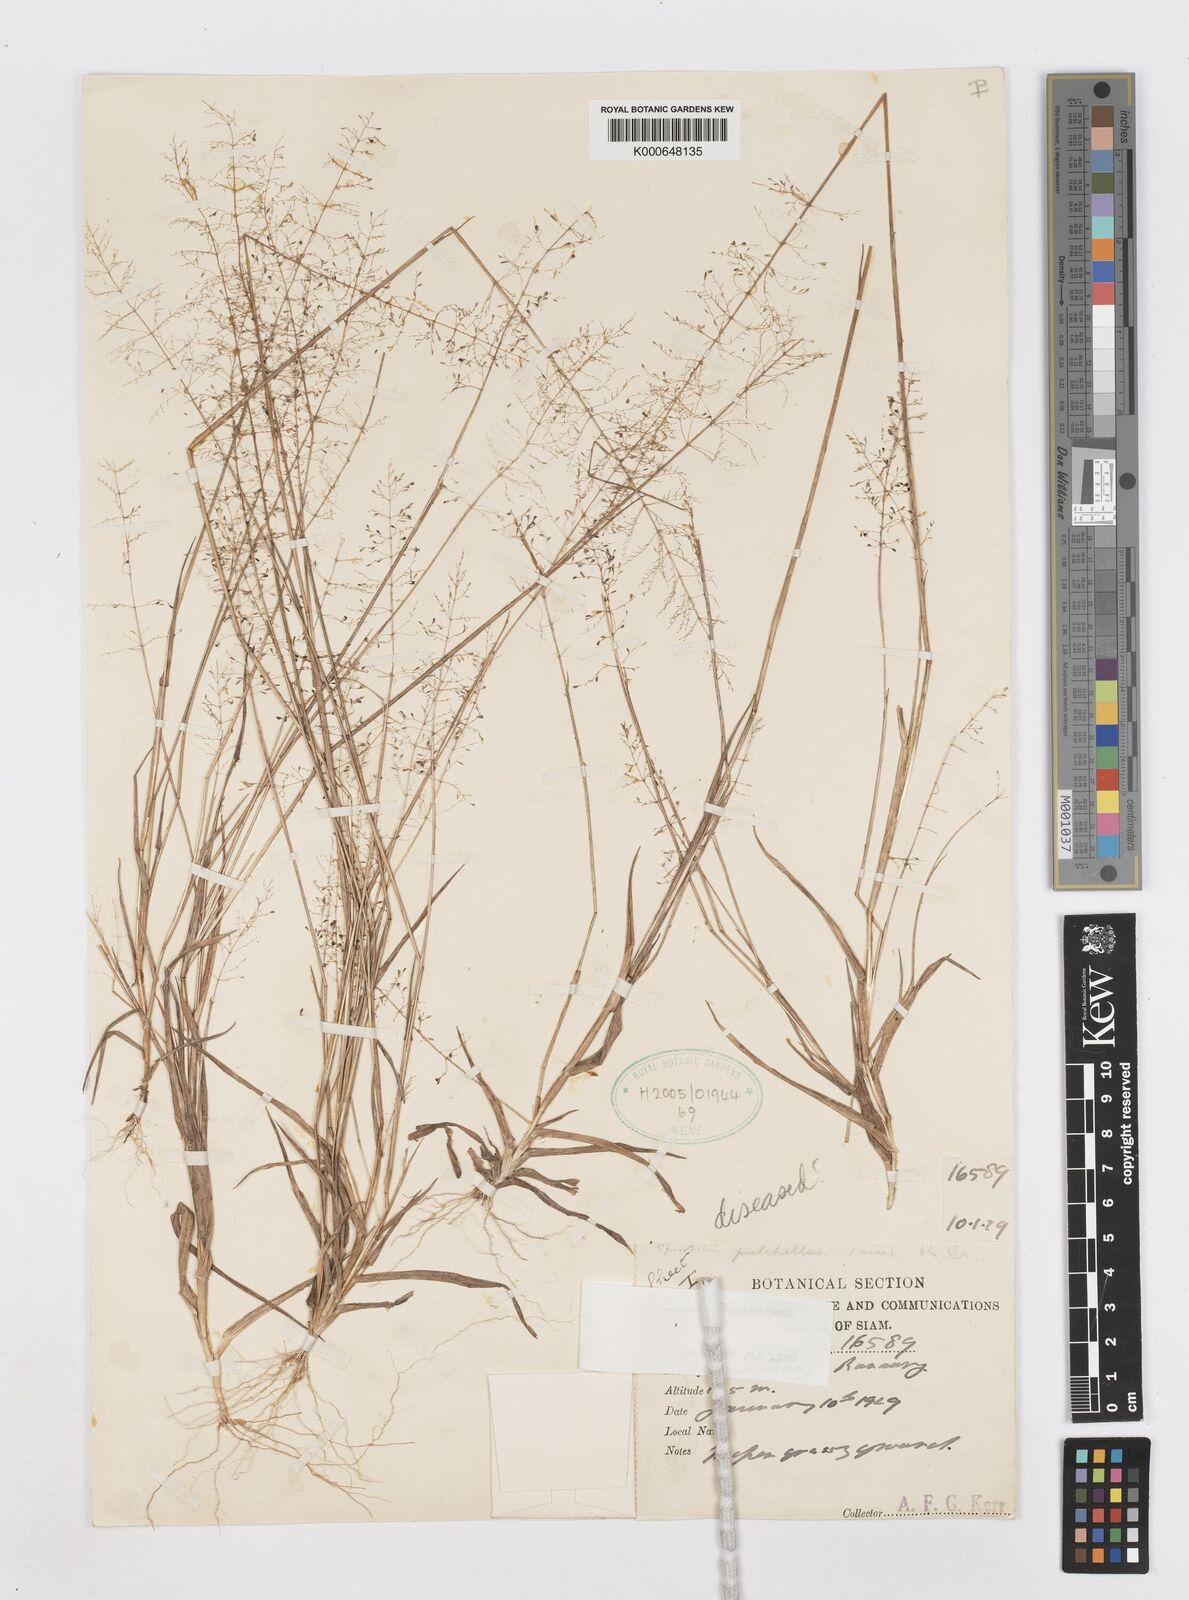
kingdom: Plantae
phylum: Tracheophyta
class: Liliopsida
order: Poales
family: Poaceae
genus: Sporobolus
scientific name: Sporobolus harmandii
